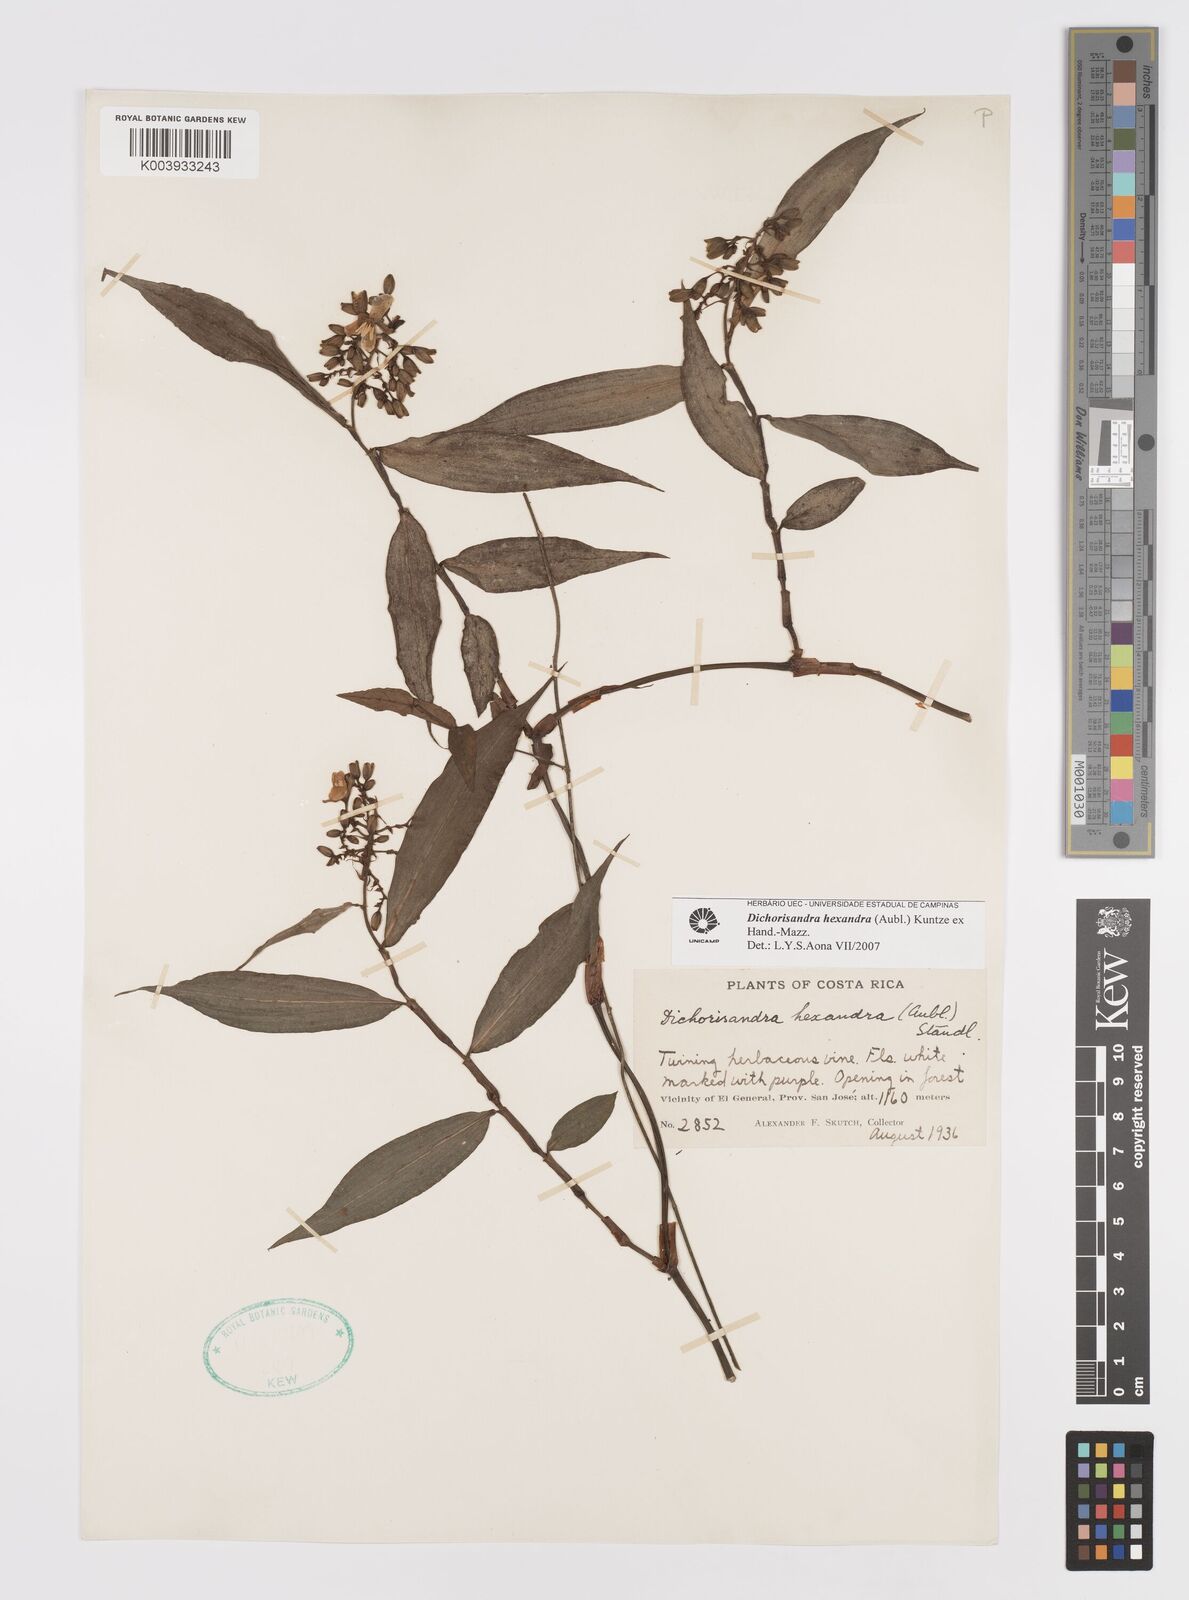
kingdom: Plantae
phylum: Tracheophyta
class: Liliopsida
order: Commelinales
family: Commelinaceae
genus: Dichorisandra
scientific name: Dichorisandra hexandra
